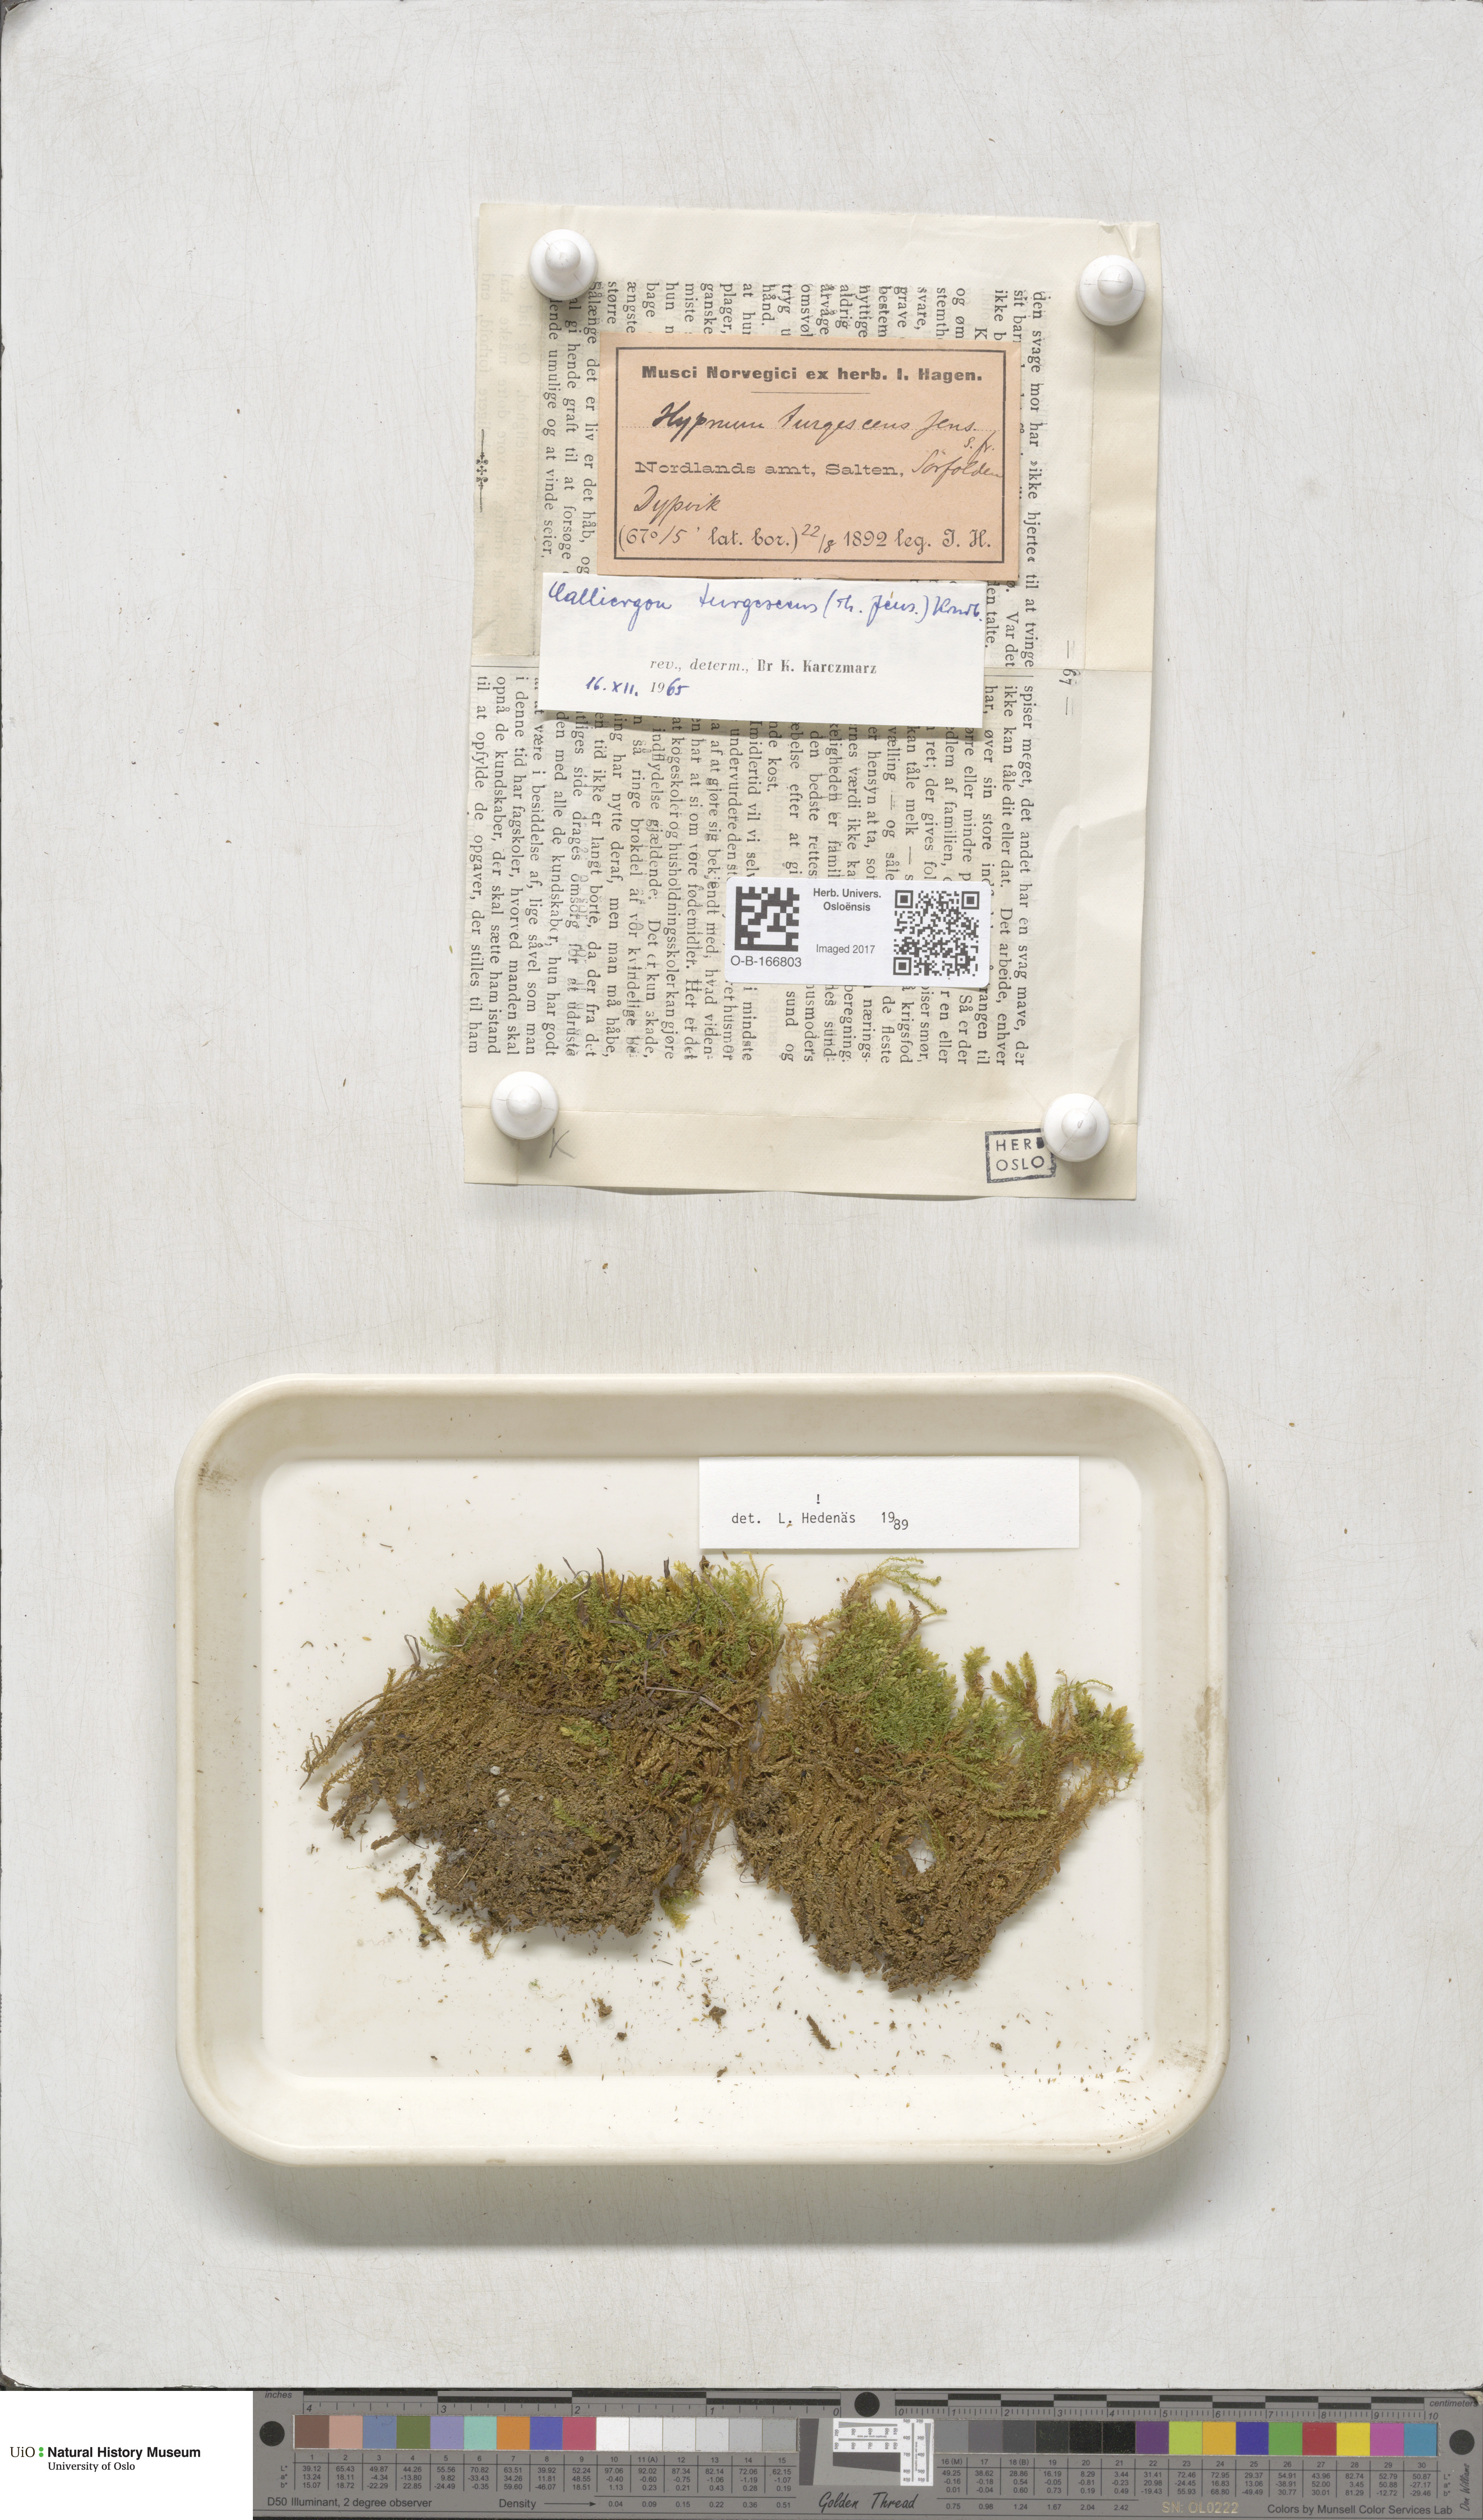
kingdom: Plantae
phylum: Bryophyta
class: Bryopsida
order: Hypnales
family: Amblystegiaceae
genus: Drepanocladus
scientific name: Drepanocladus turgescens
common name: Large yellow feather-moss
